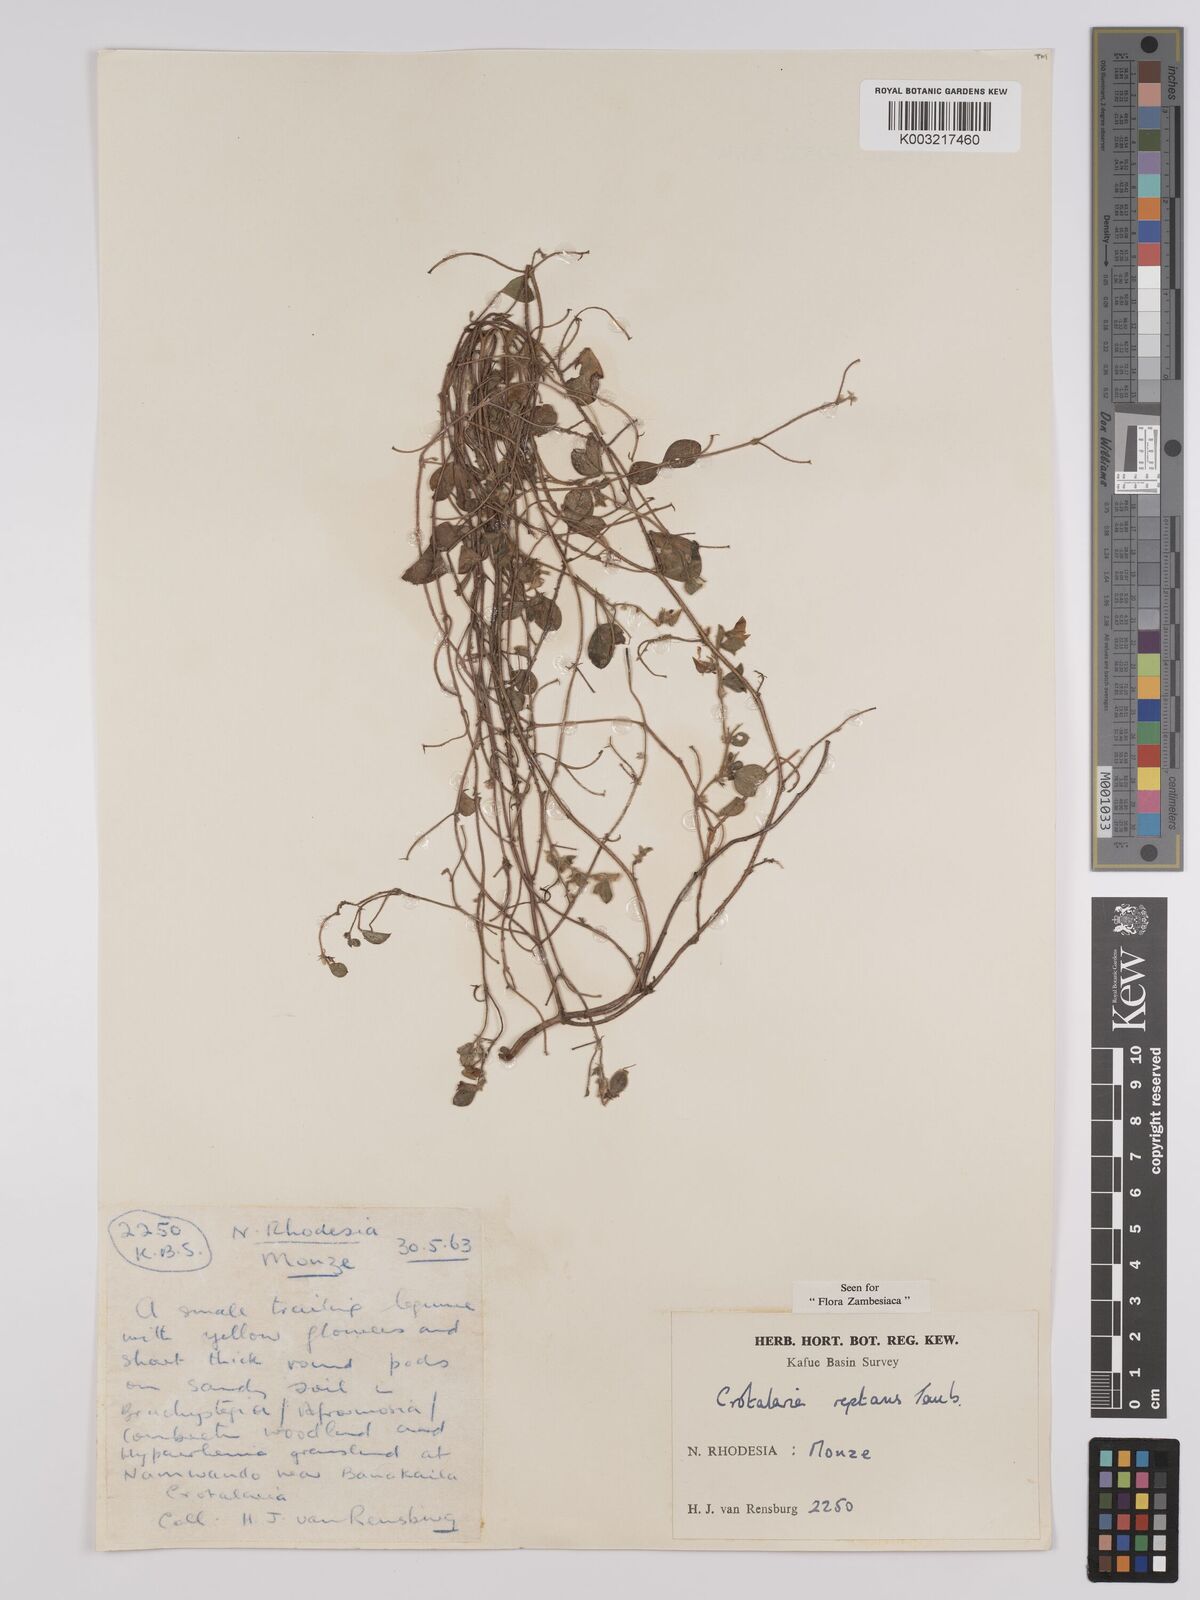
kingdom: Plantae
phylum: Tracheophyta
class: Magnoliopsida
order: Fabales
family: Fabaceae
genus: Crotalaria
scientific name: Crotalaria reptans
